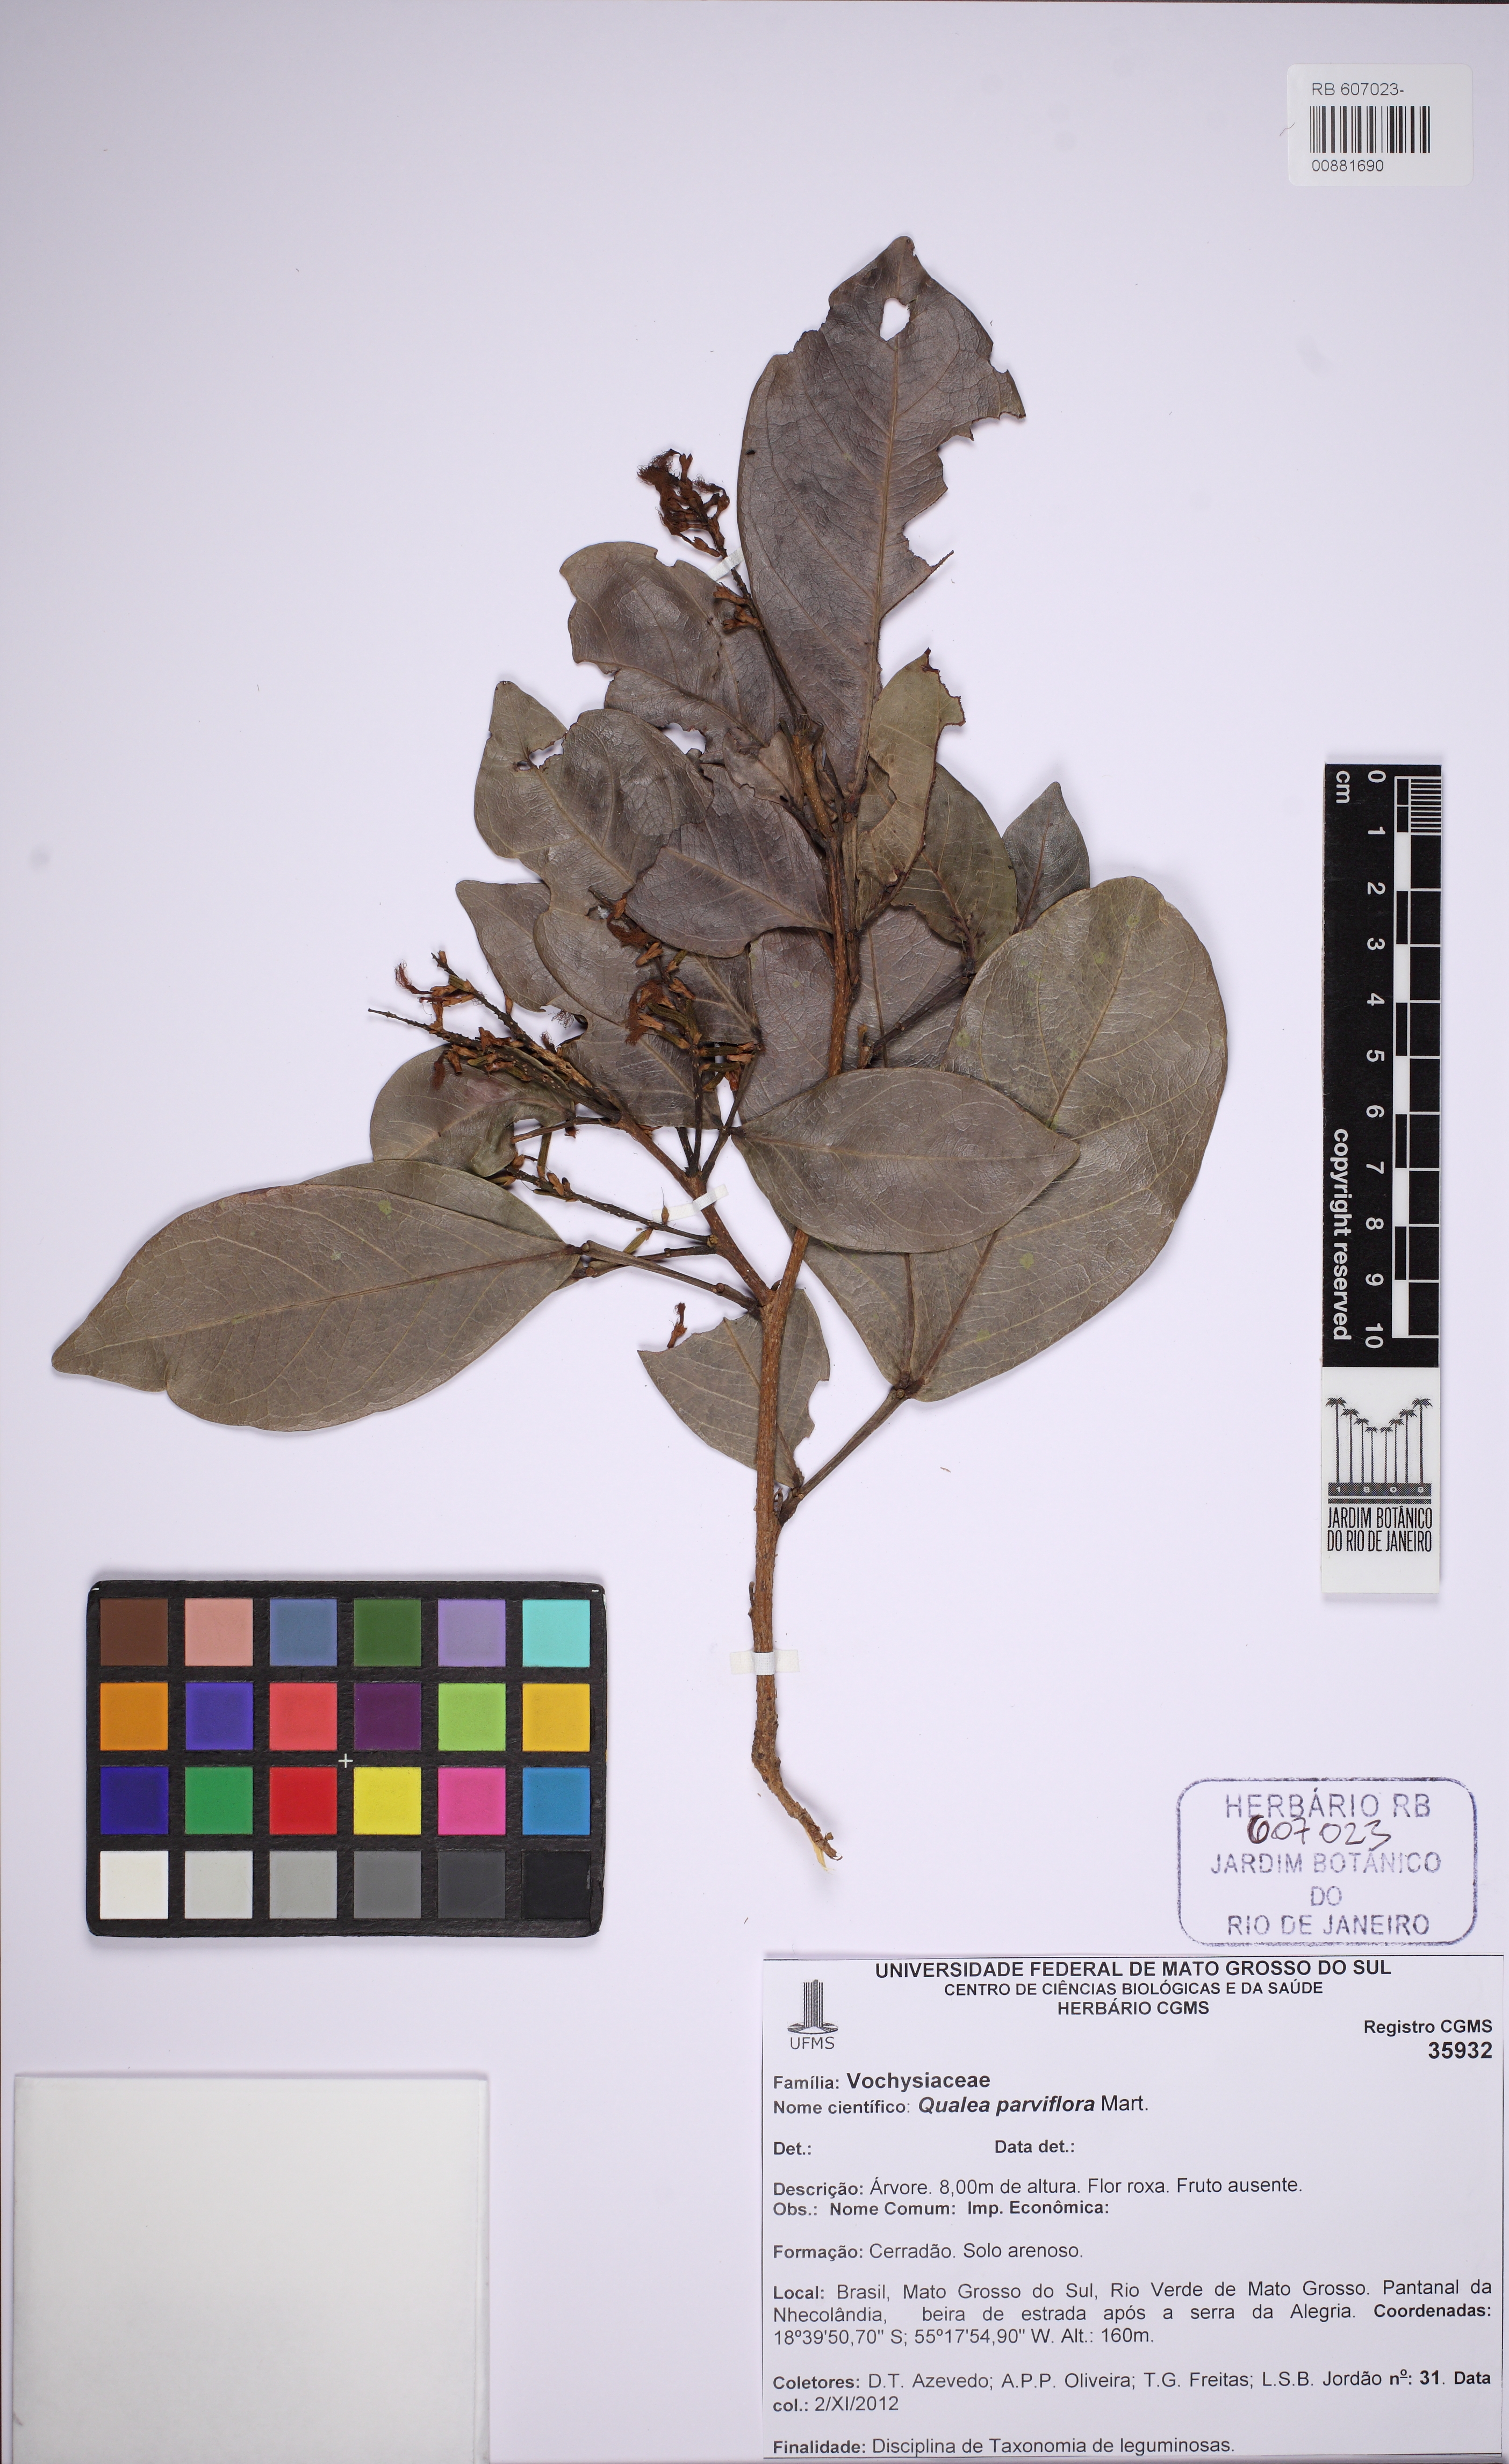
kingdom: Plantae
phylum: Tracheophyta
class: Magnoliopsida
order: Myrtales
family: Vochysiaceae
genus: Qualea
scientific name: Qualea parviflora
